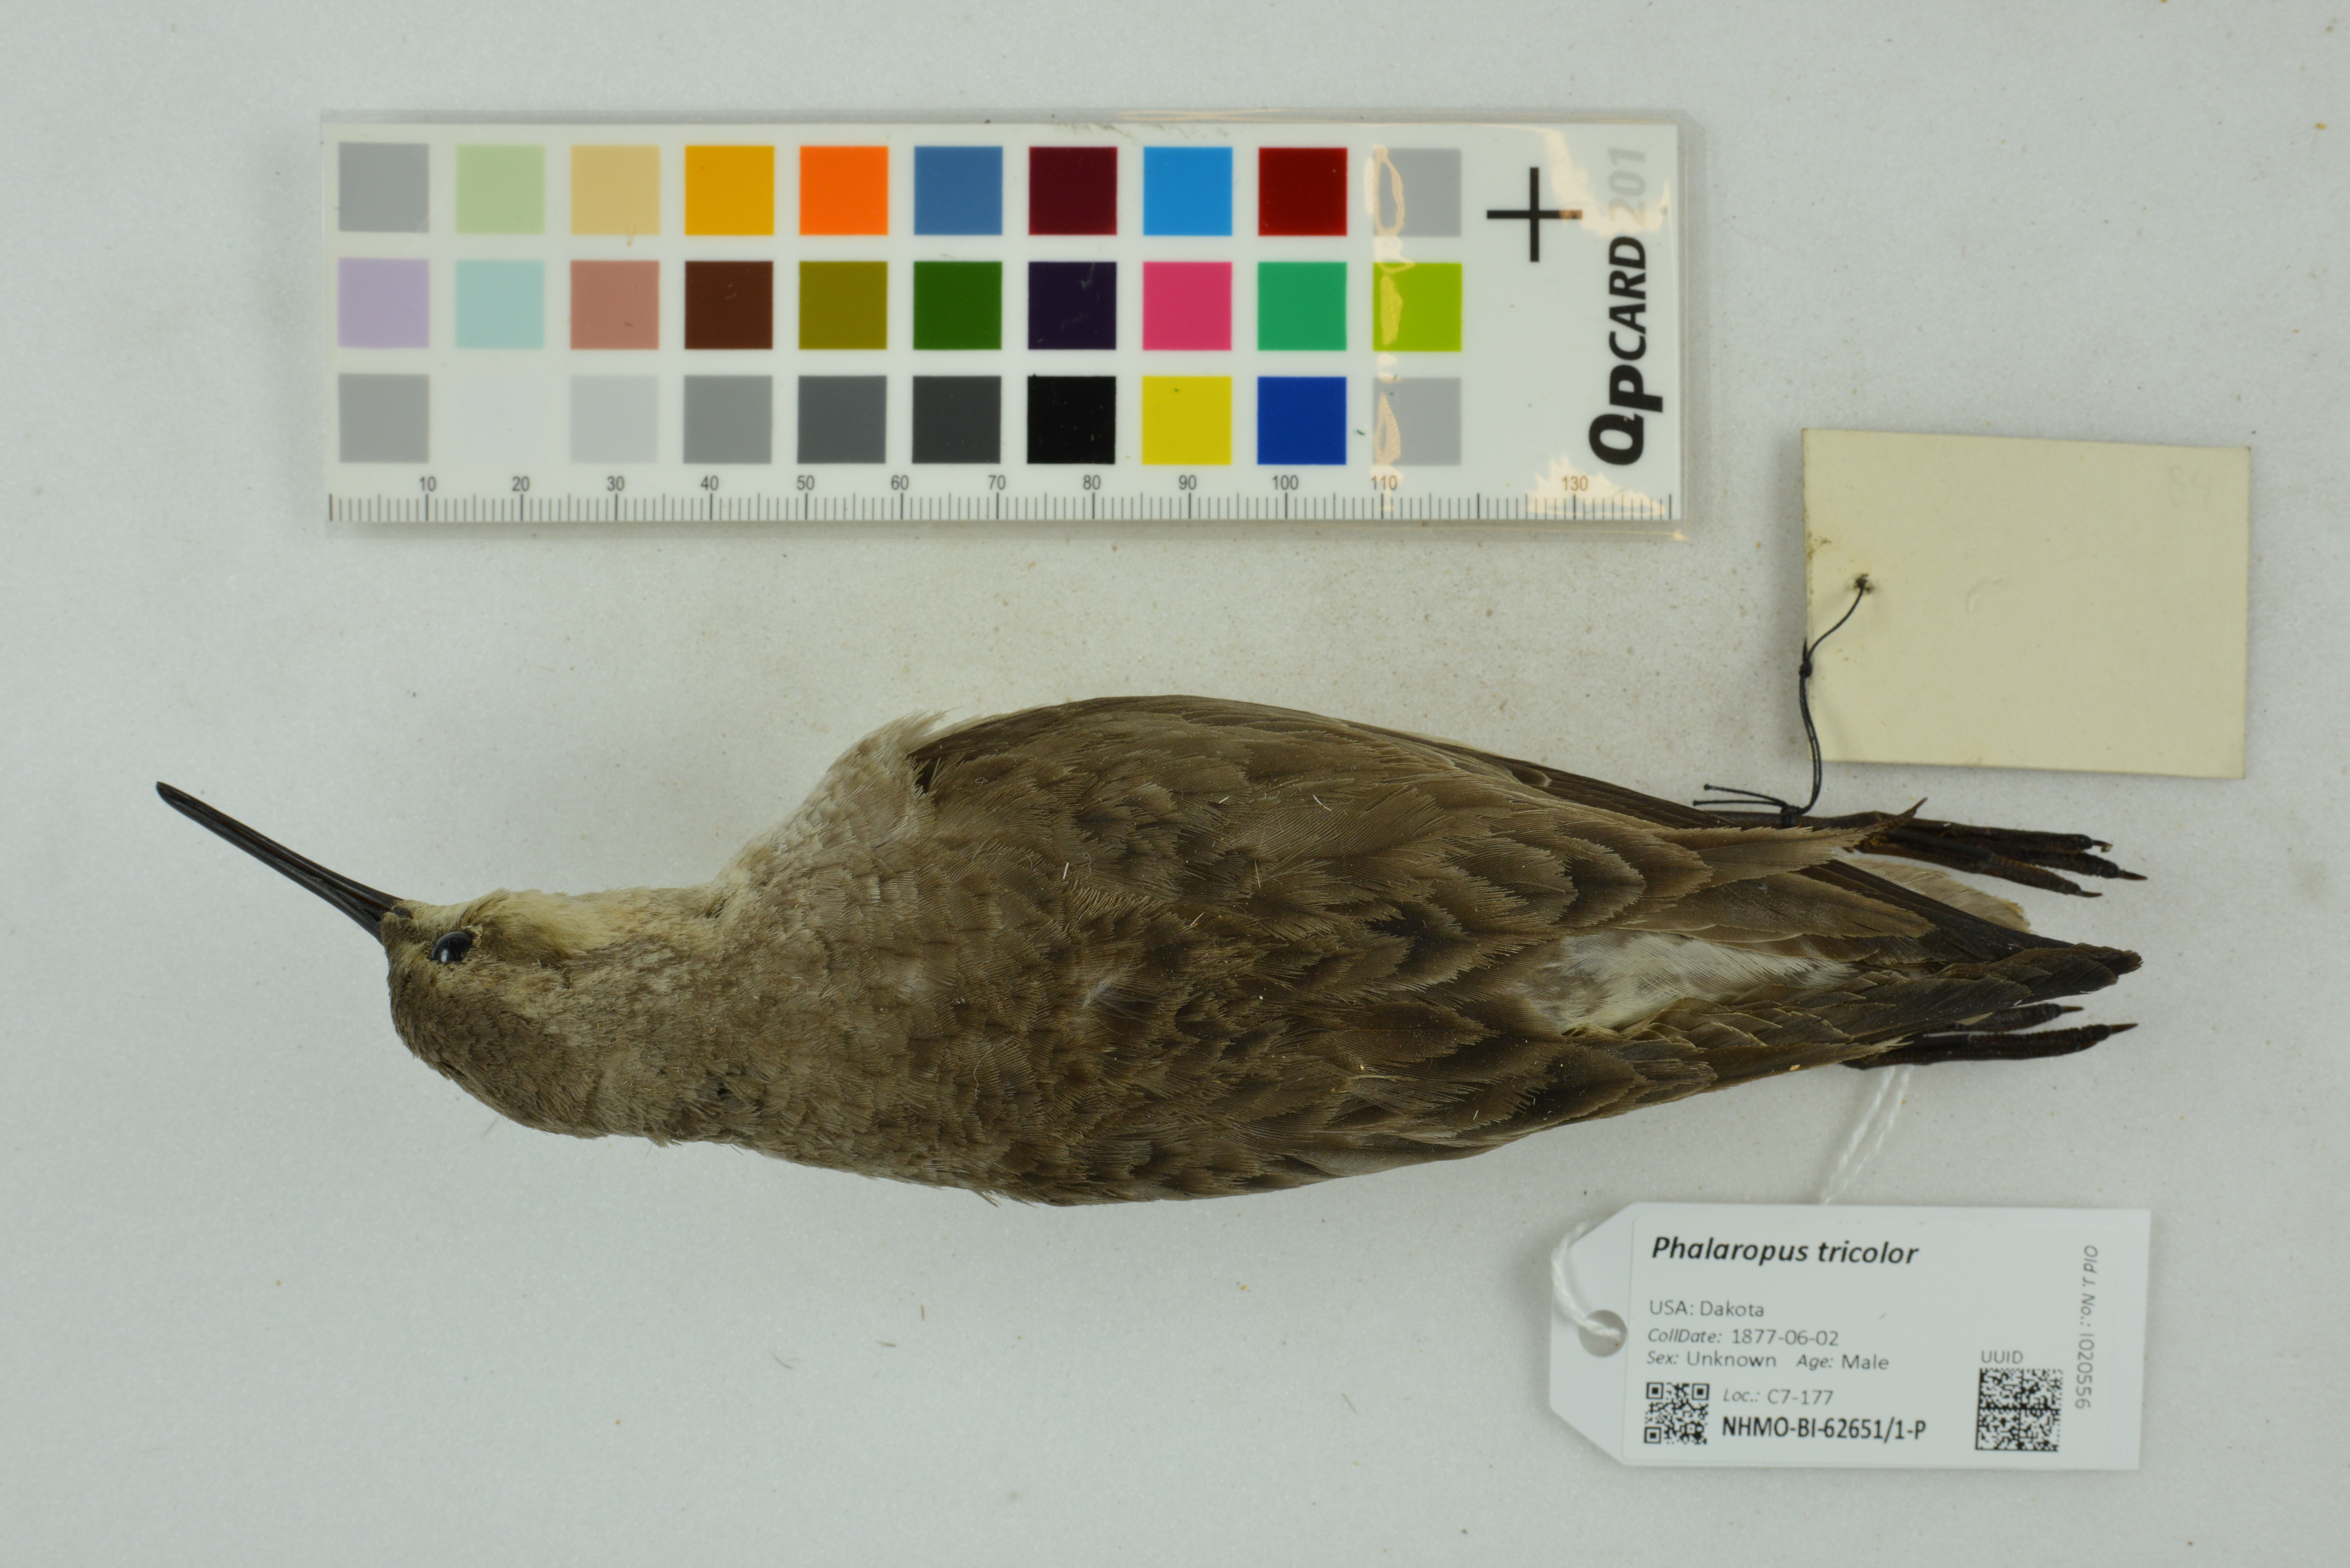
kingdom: Animalia
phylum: Chordata
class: Aves
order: Charadriiformes
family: Scolopacidae
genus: Phalaropus
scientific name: Phalaropus tricolor
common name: Wilson's phalarope
